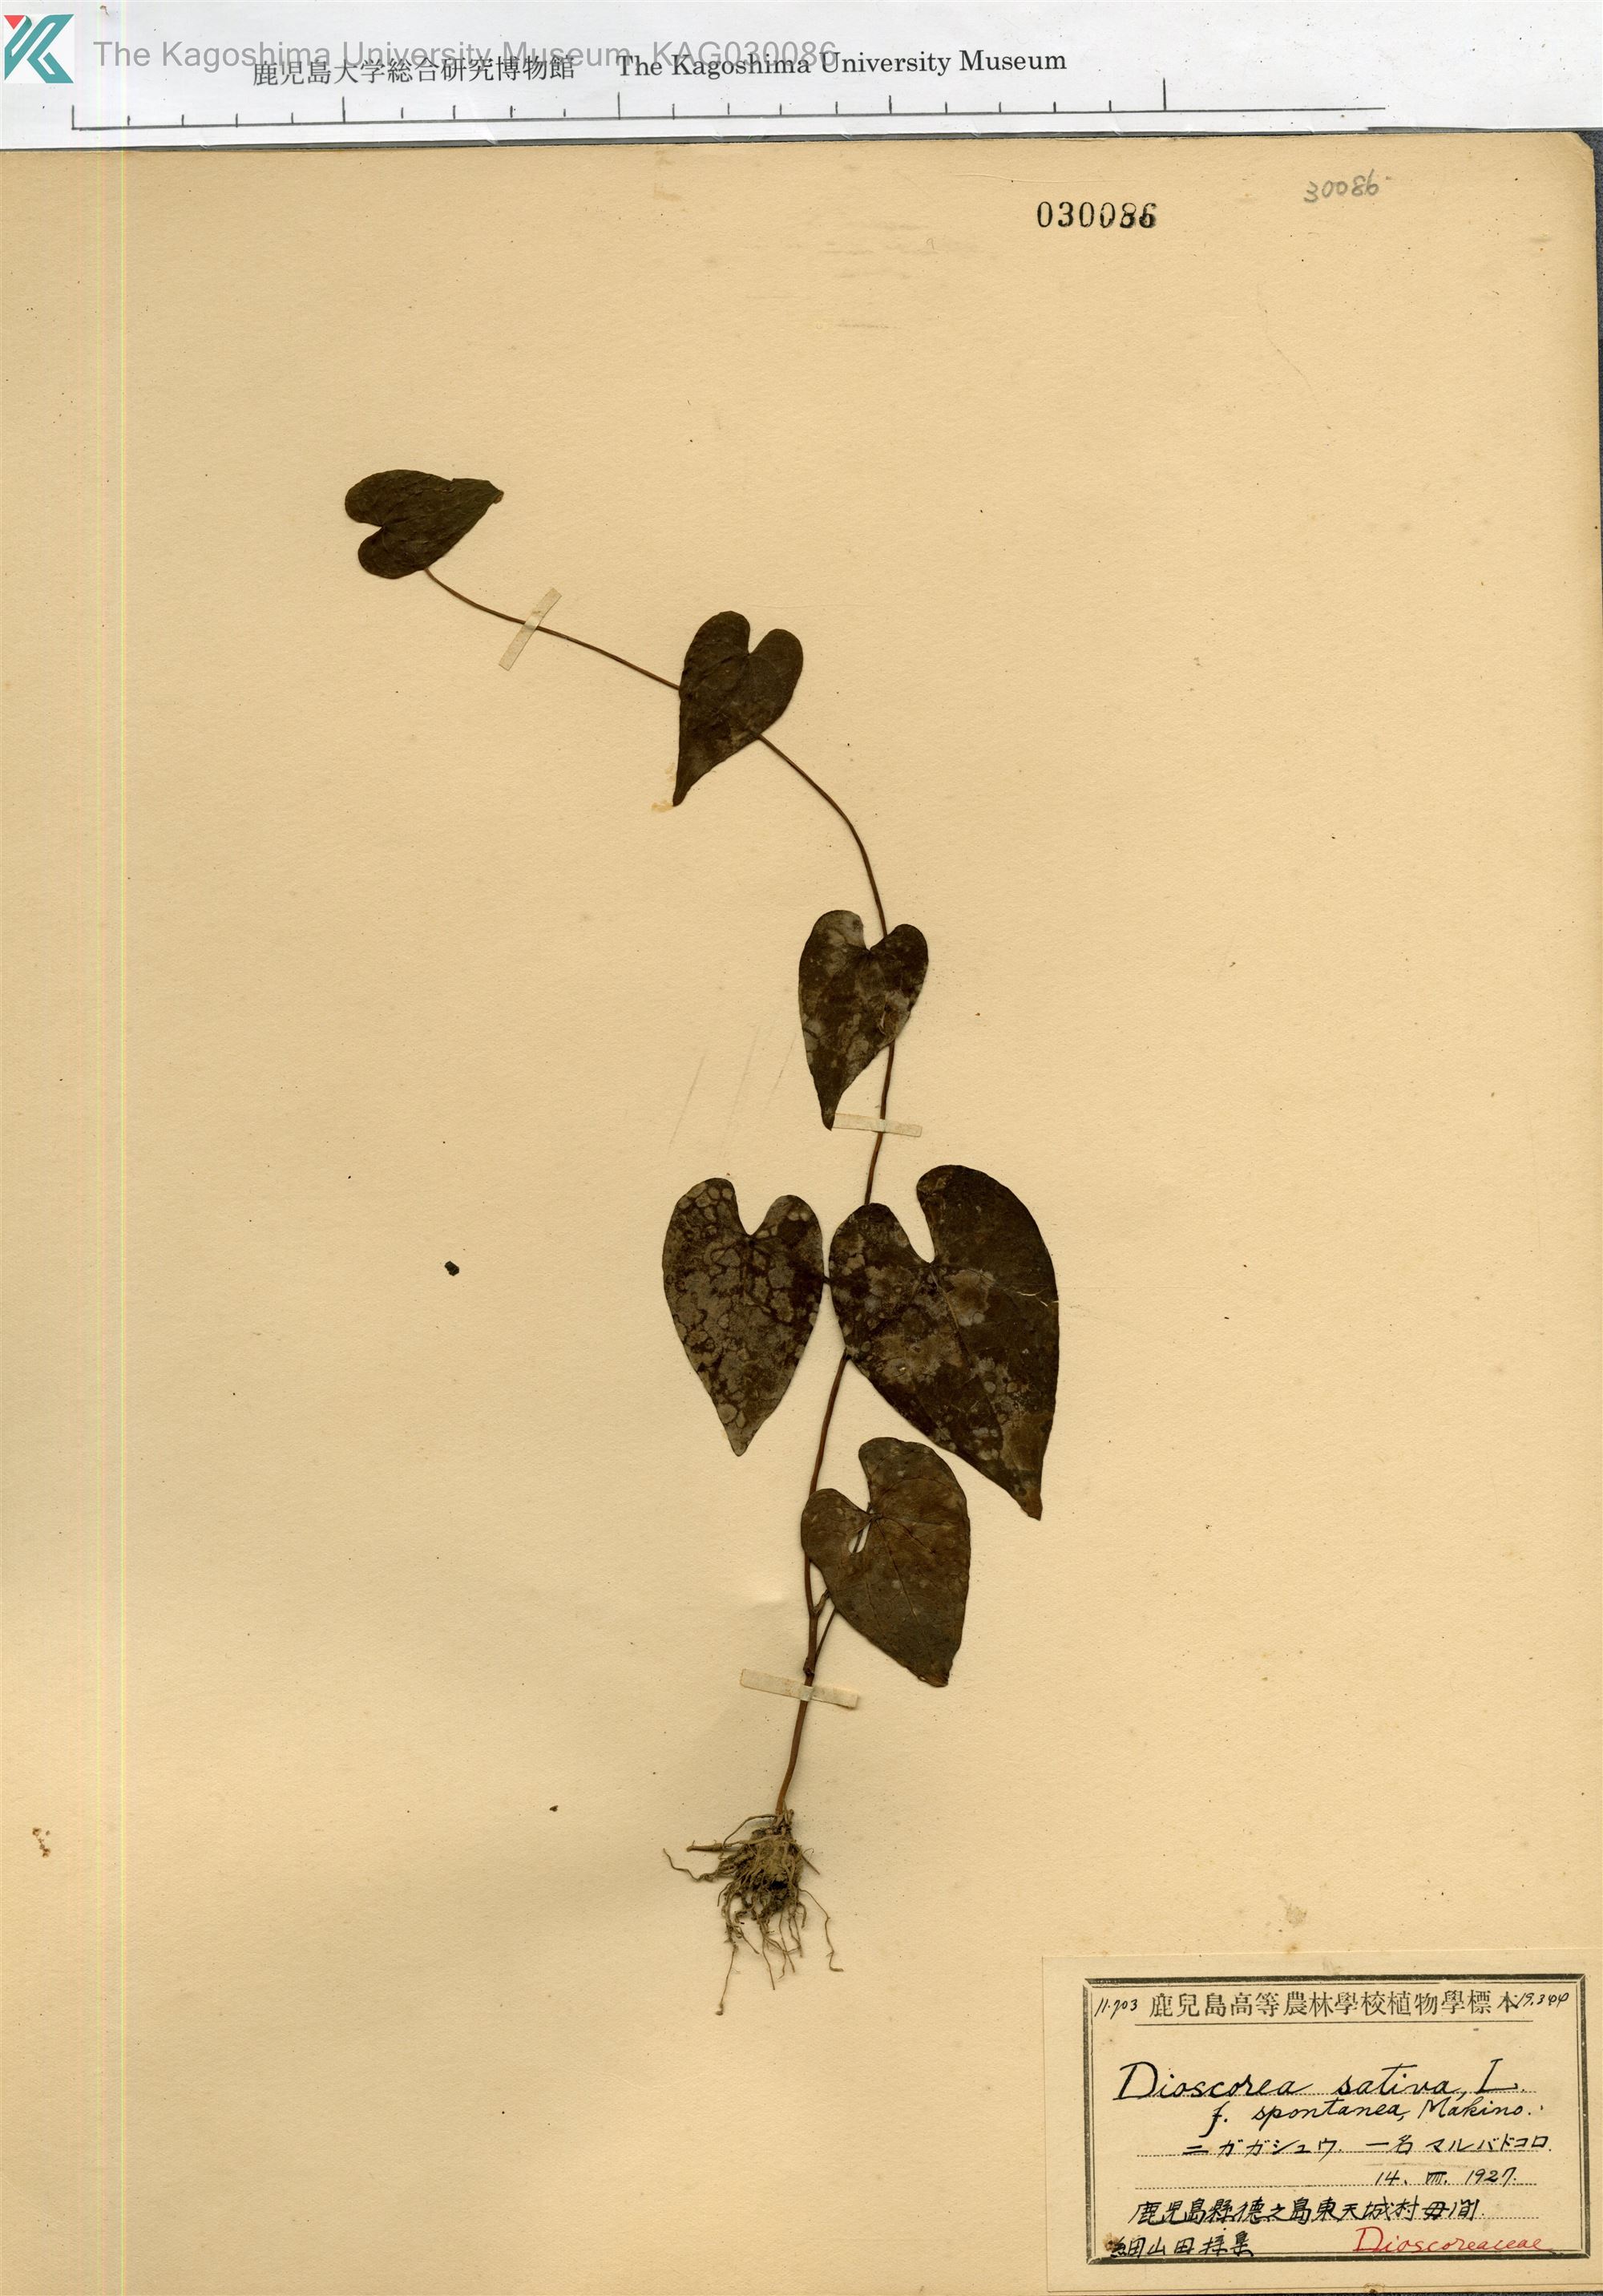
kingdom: Plantae
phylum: Tracheophyta
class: Liliopsida
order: Dioscoreales
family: Dioscoreaceae
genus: Dioscorea
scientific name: Dioscorea bulbifera
